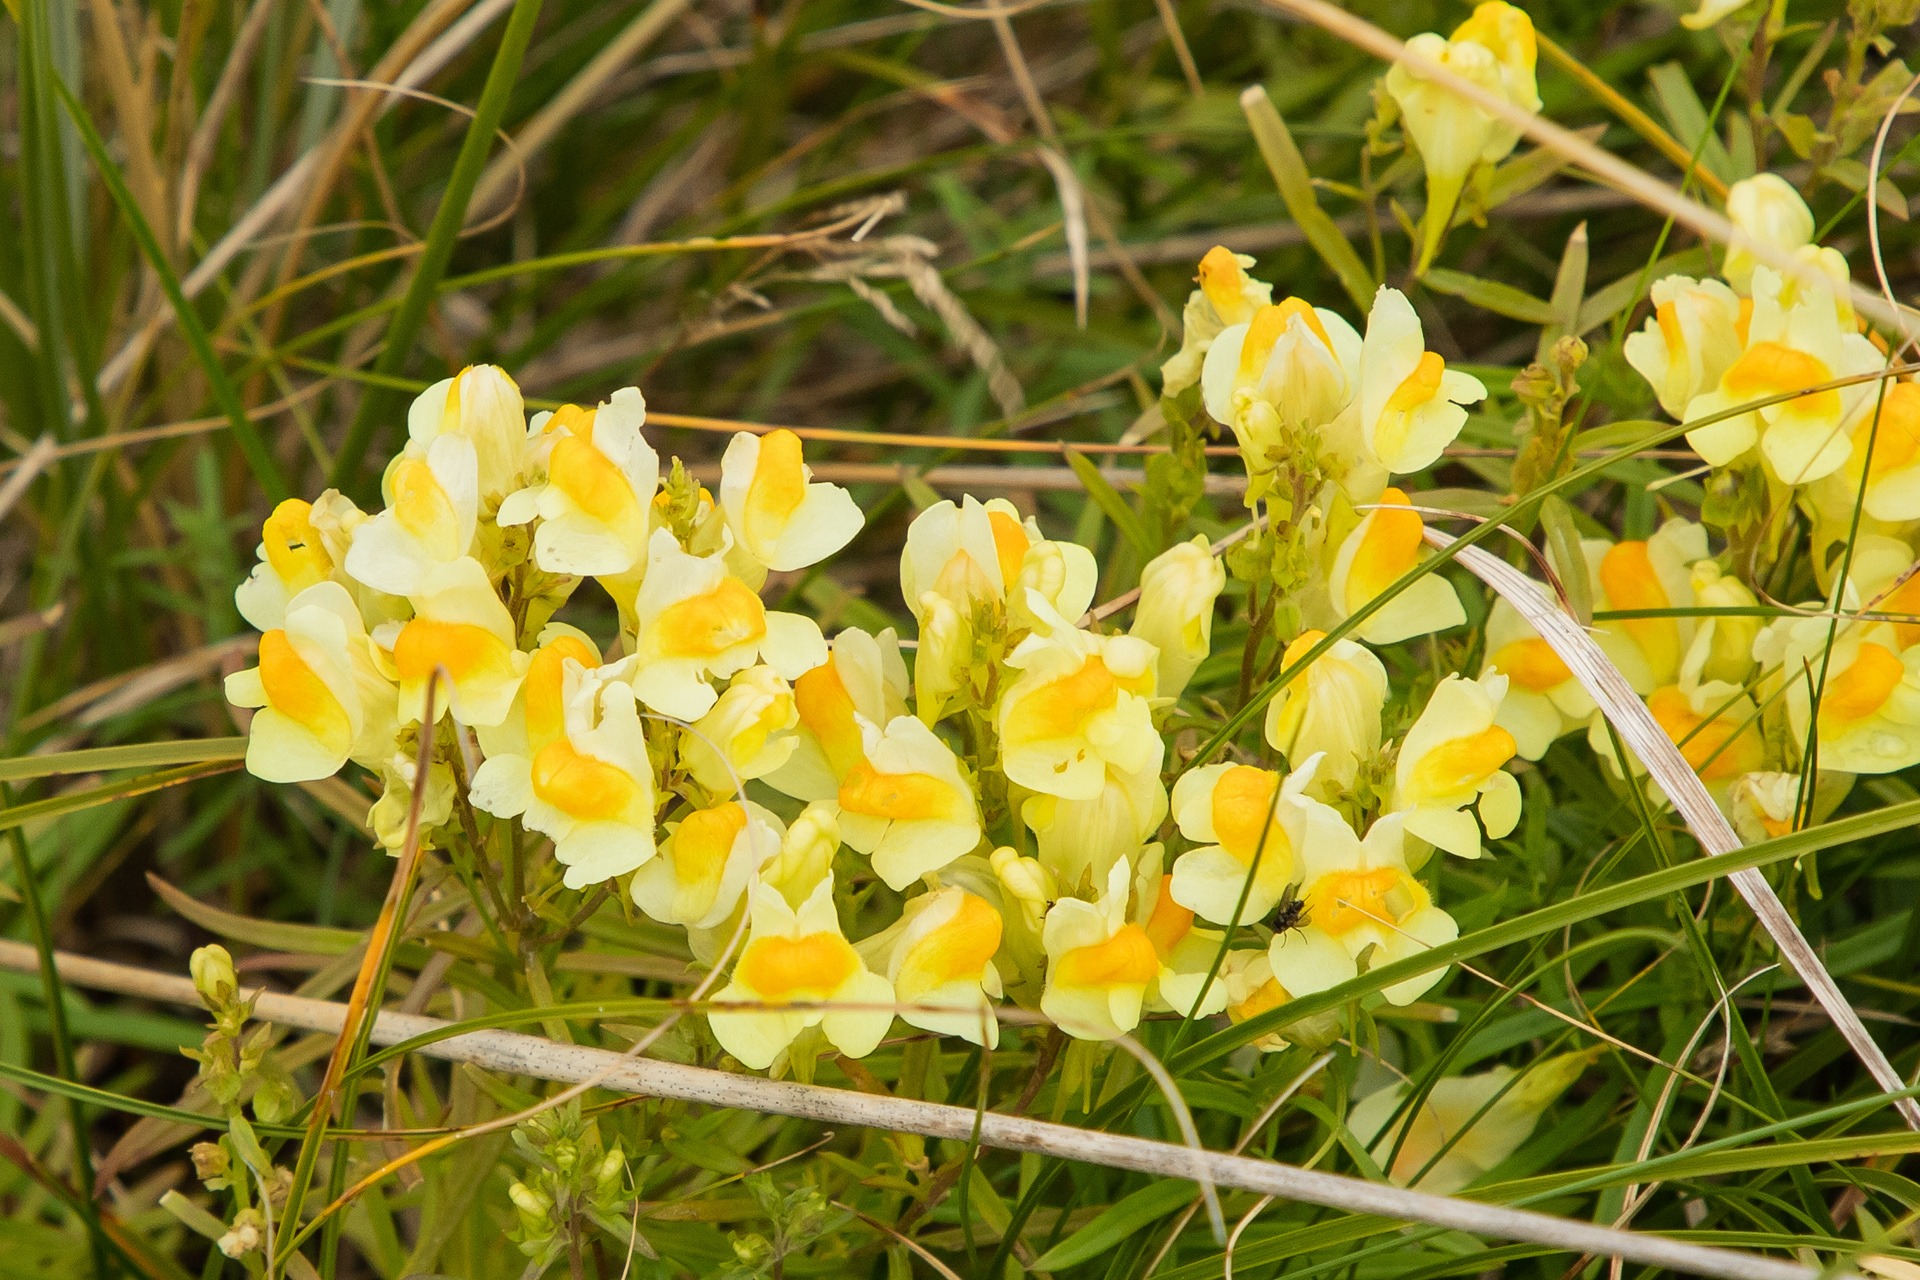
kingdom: Plantae
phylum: Tracheophyta
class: Magnoliopsida
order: Lamiales
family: Plantaginaceae
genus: Linaria
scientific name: Linaria vulgaris
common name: Almindelig torskemund
